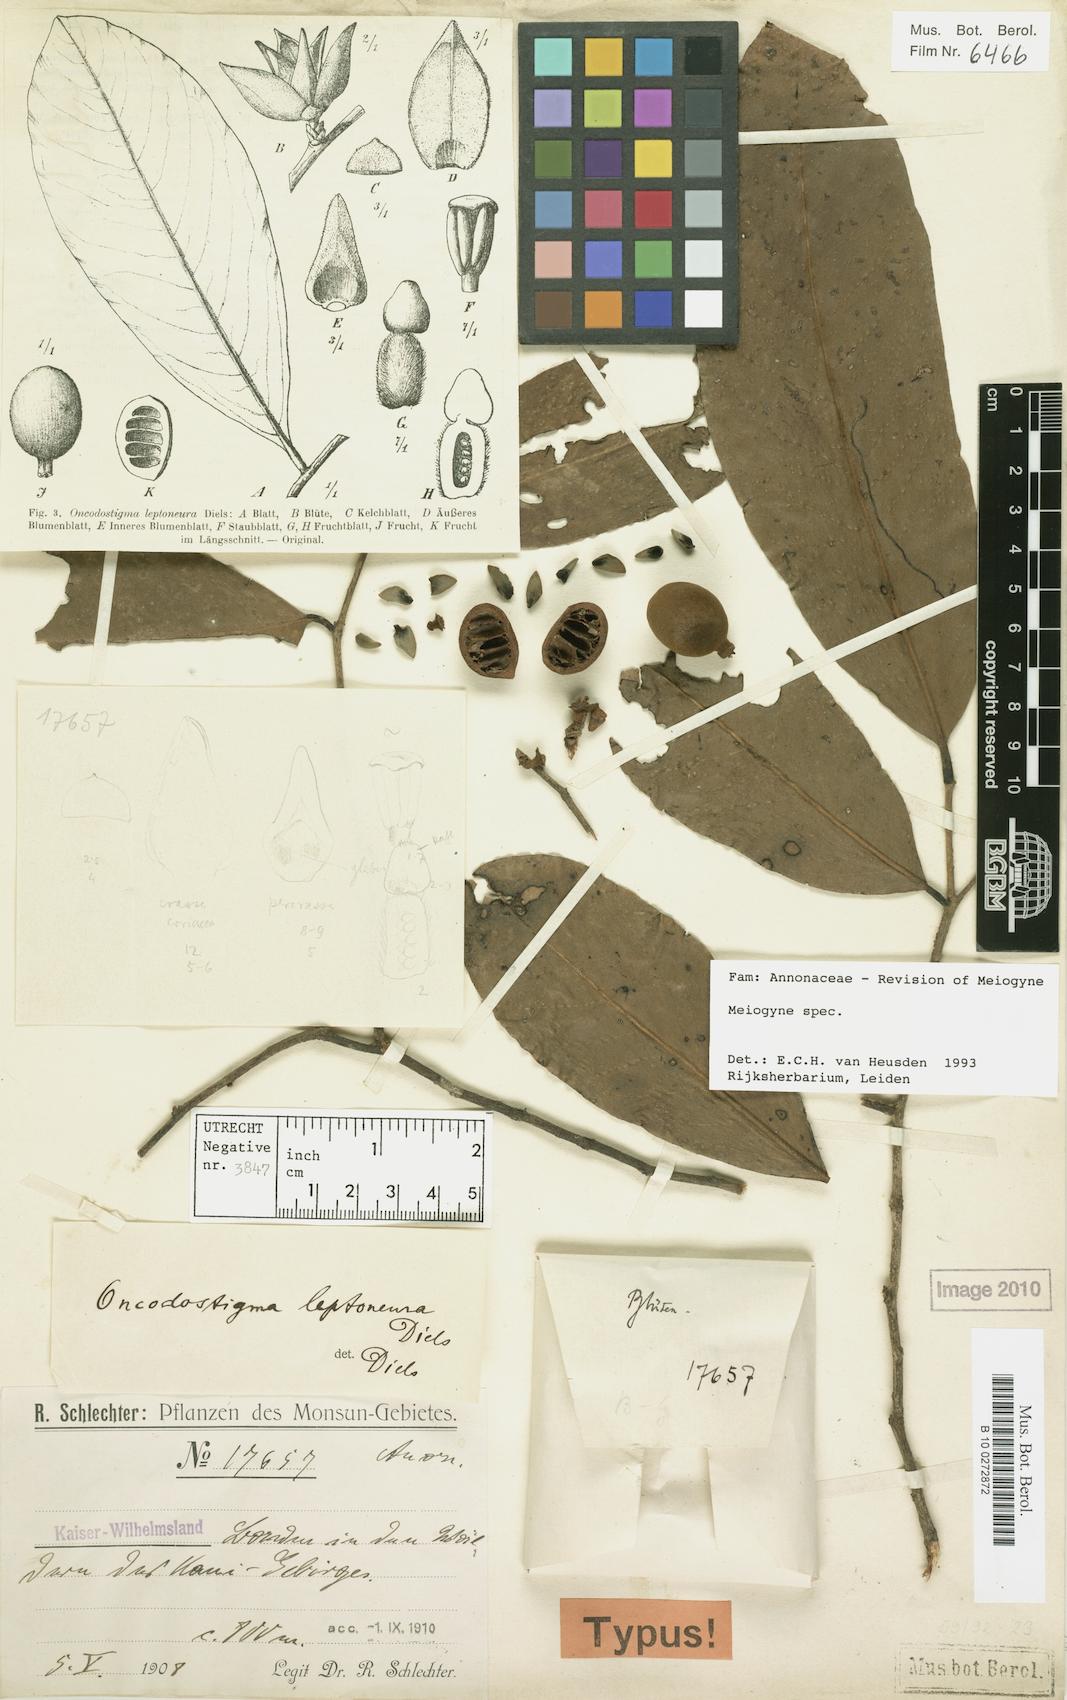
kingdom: Plantae
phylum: Tracheophyta
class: Magnoliopsida
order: Magnoliales
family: Annonaceae
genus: Meiogyne
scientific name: Meiogyne
